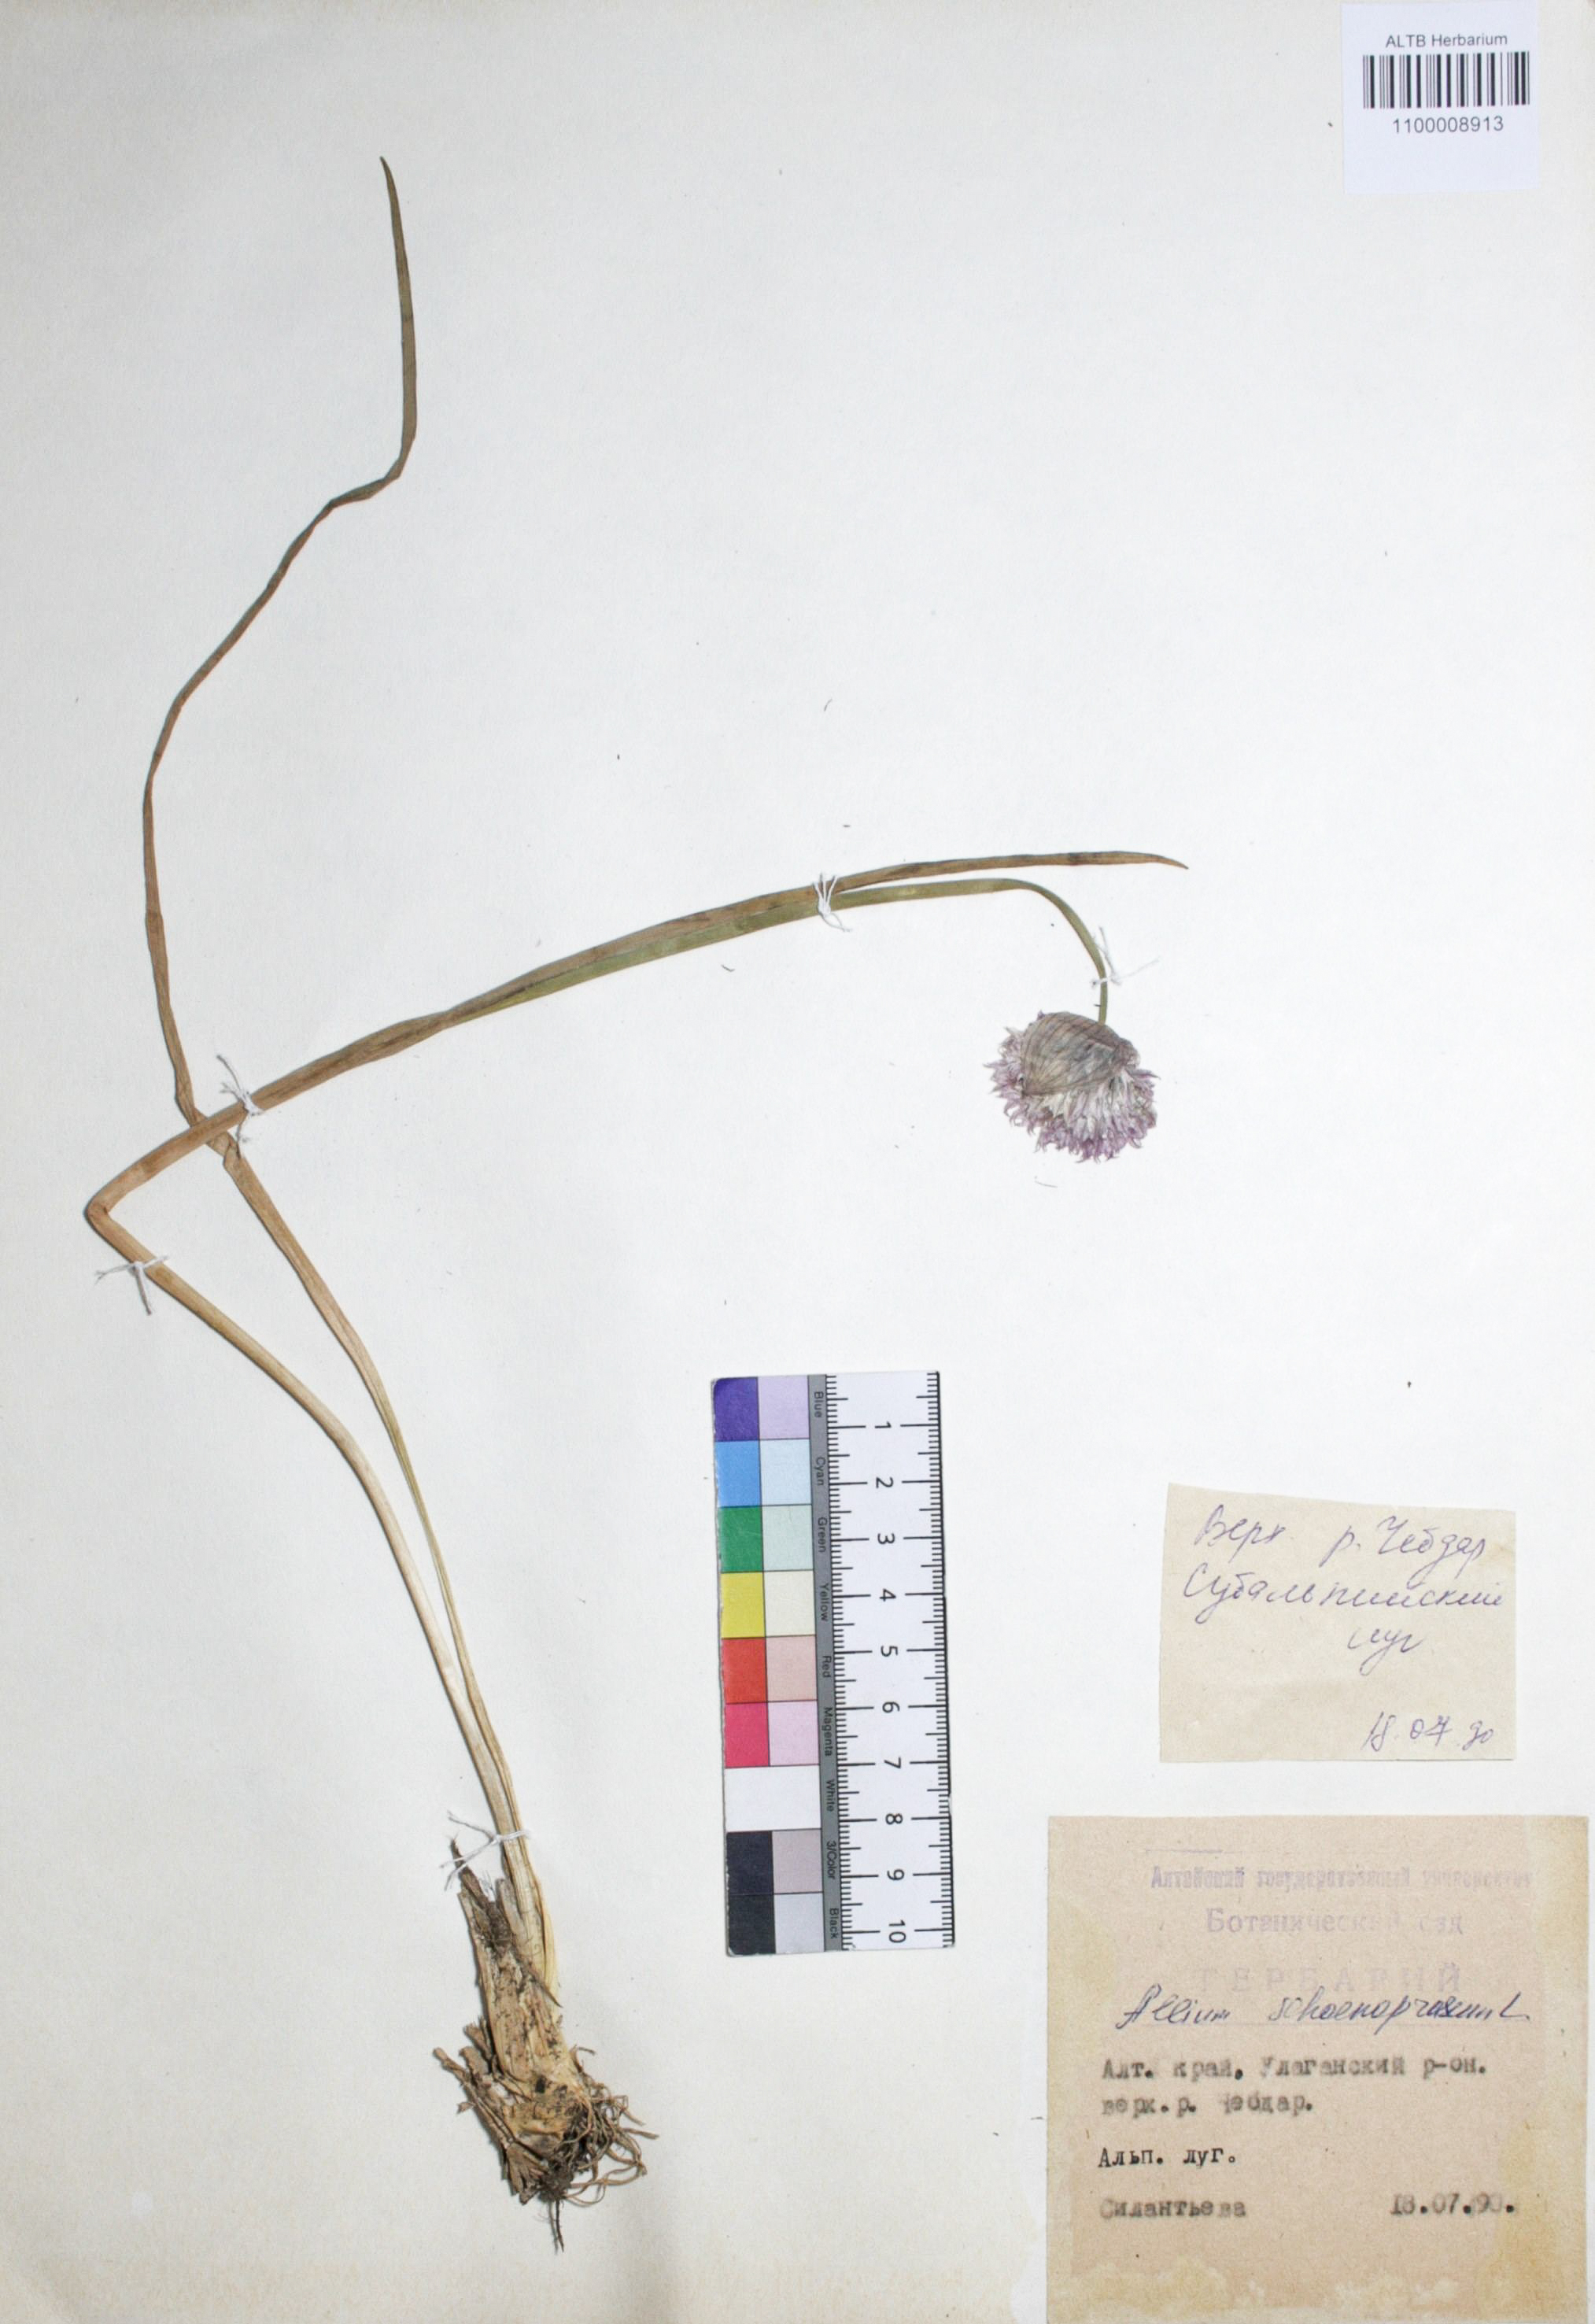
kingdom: Plantae
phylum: Tracheophyta
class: Liliopsida
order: Asparagales
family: Amaryllidaceae
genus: Allium
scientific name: Allium schoenoprasum
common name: Chives
